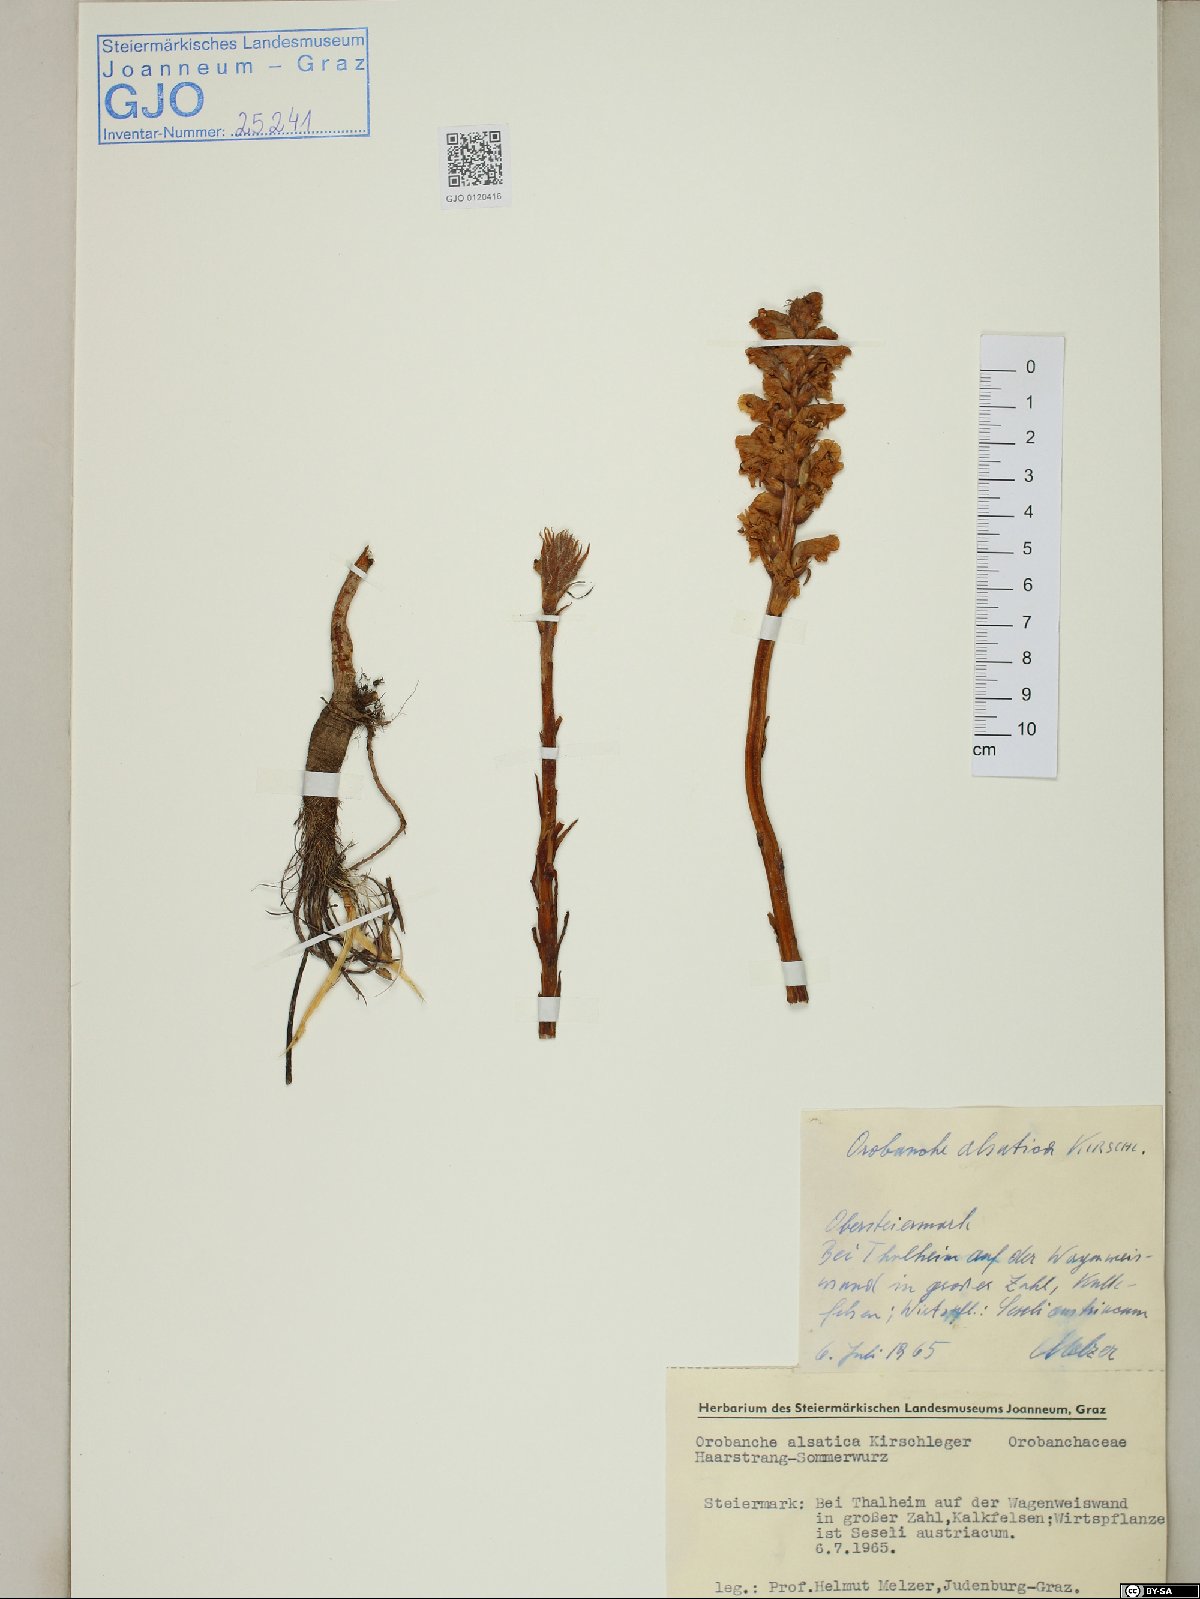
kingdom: Plantae
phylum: Tracheophyta
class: Magnoliopsida
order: Lamiales
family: Orobanchaceae
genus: Orobanche
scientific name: Orobanche alsatica
